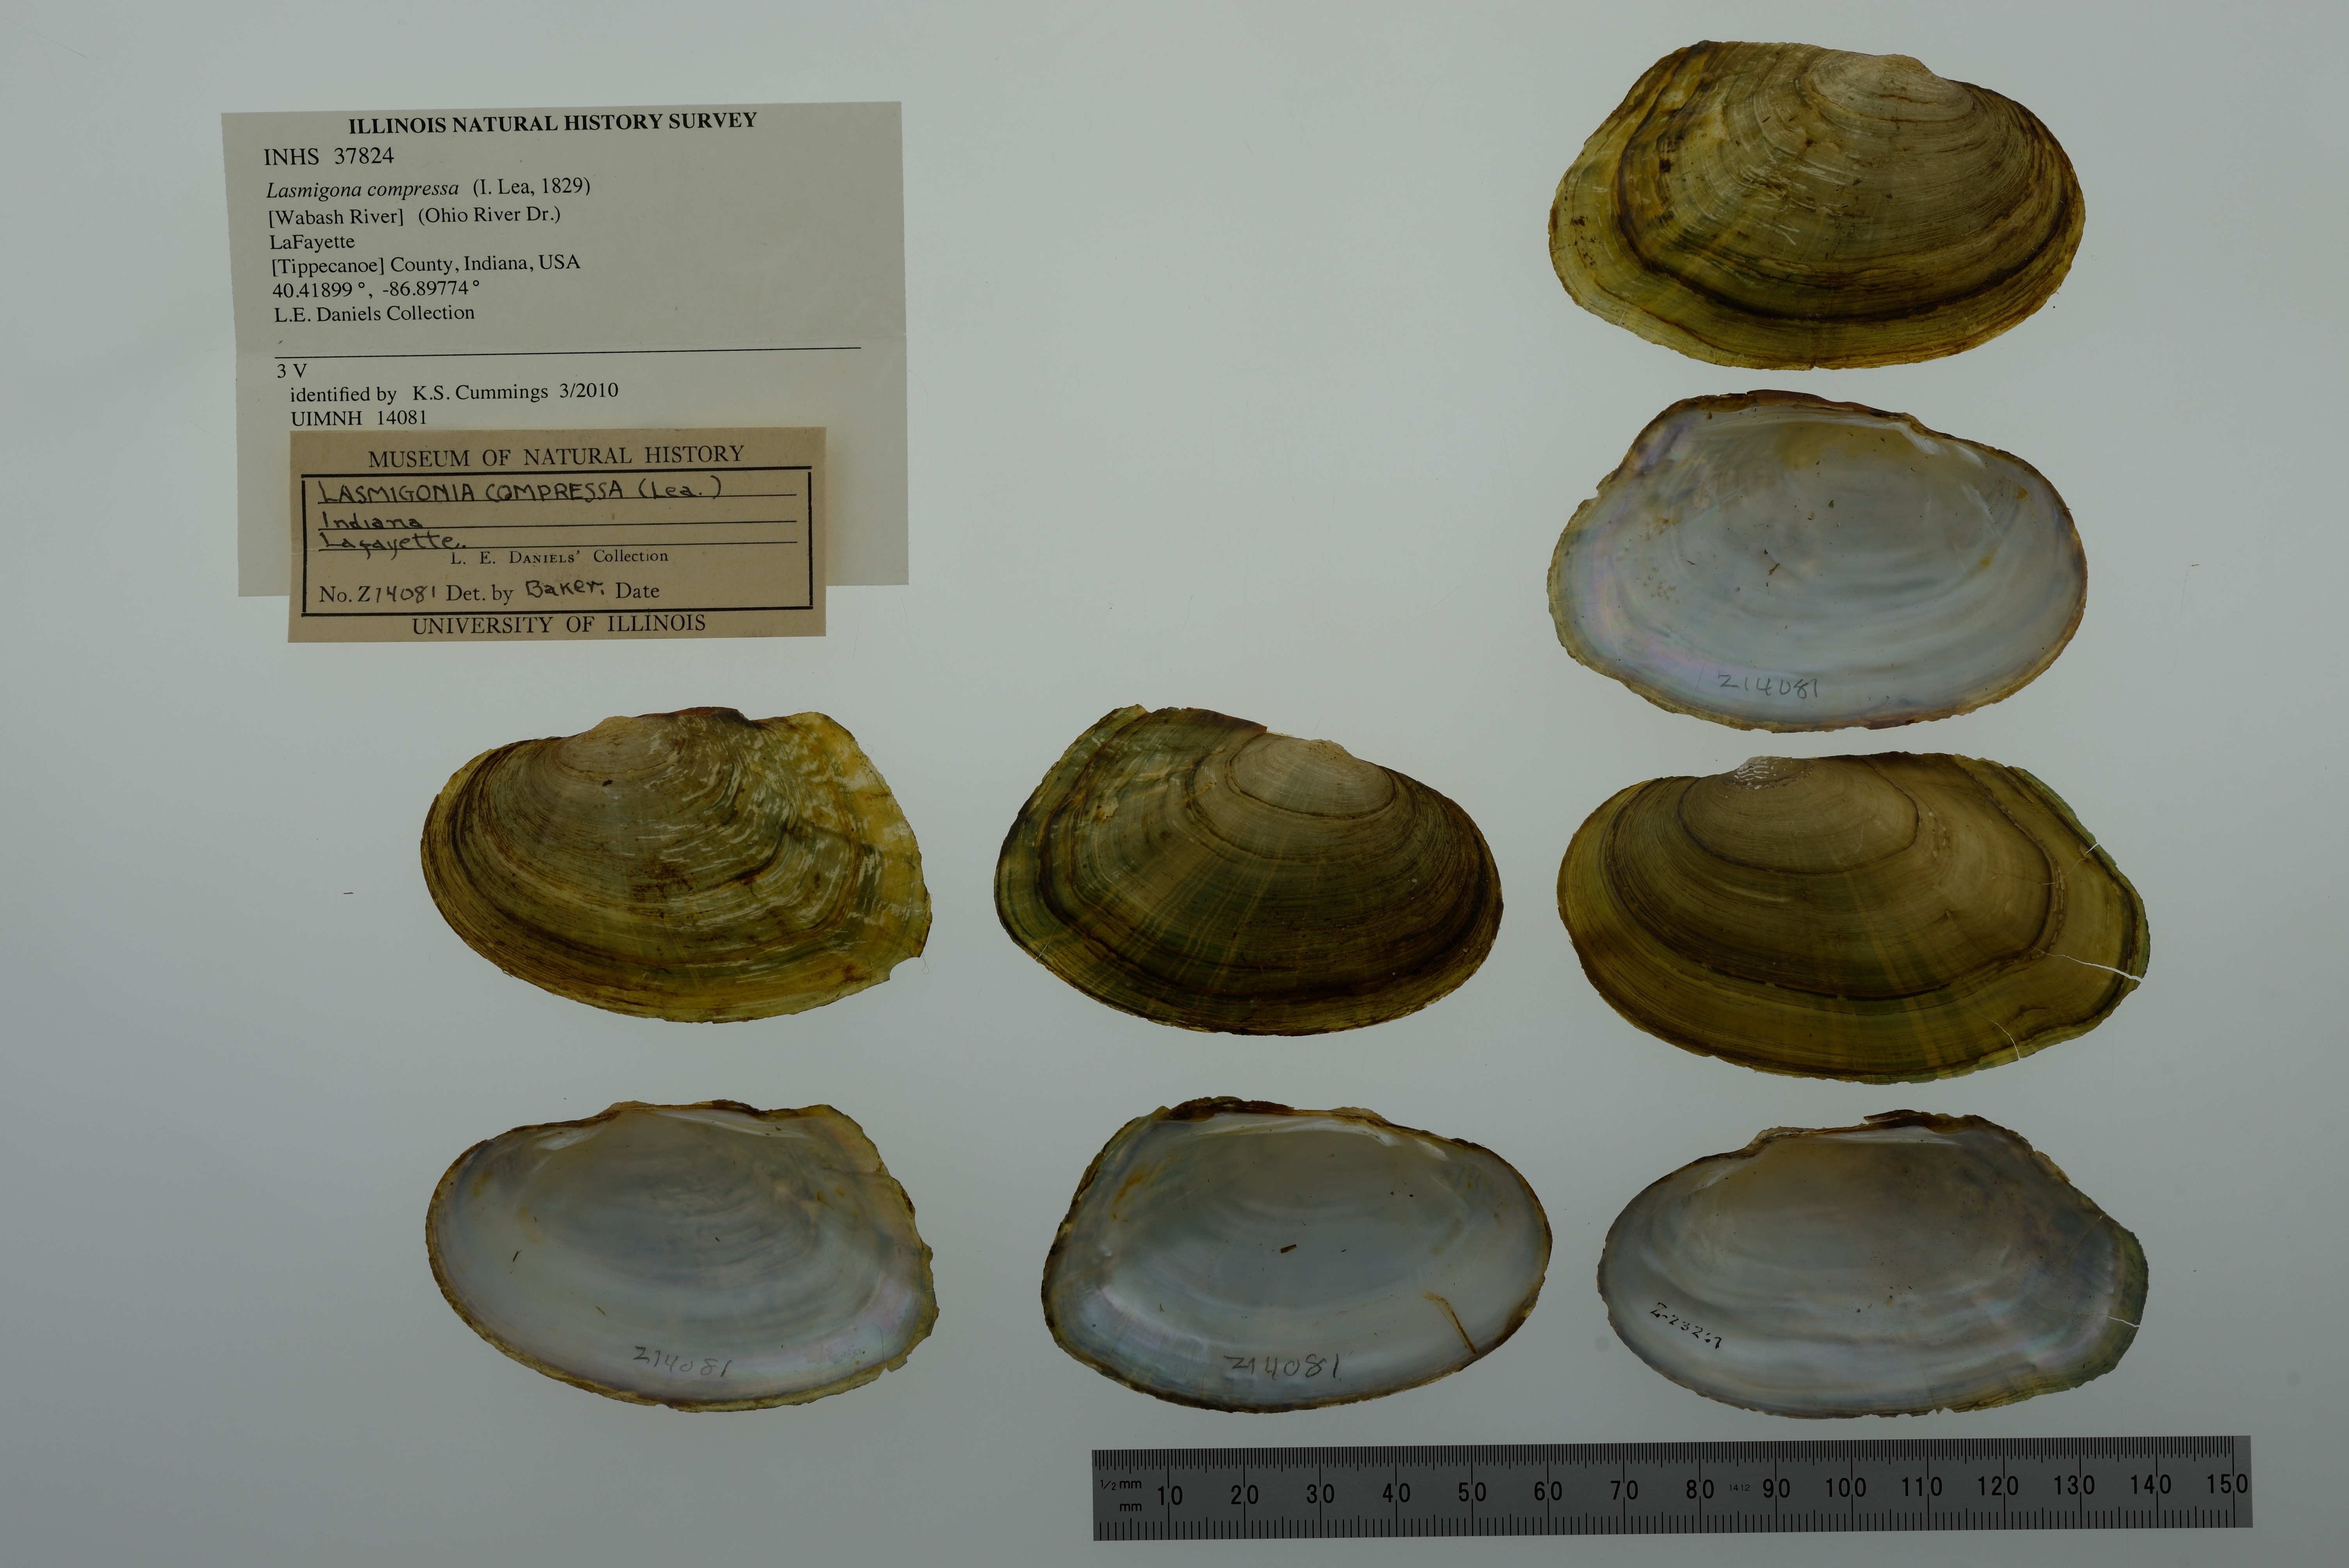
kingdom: Animalia
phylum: Mollusca
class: Bivalvia
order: Unionida
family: Unionidae
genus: Lasmigona
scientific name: Lasmigona compressa
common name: Creek heelsplitter
